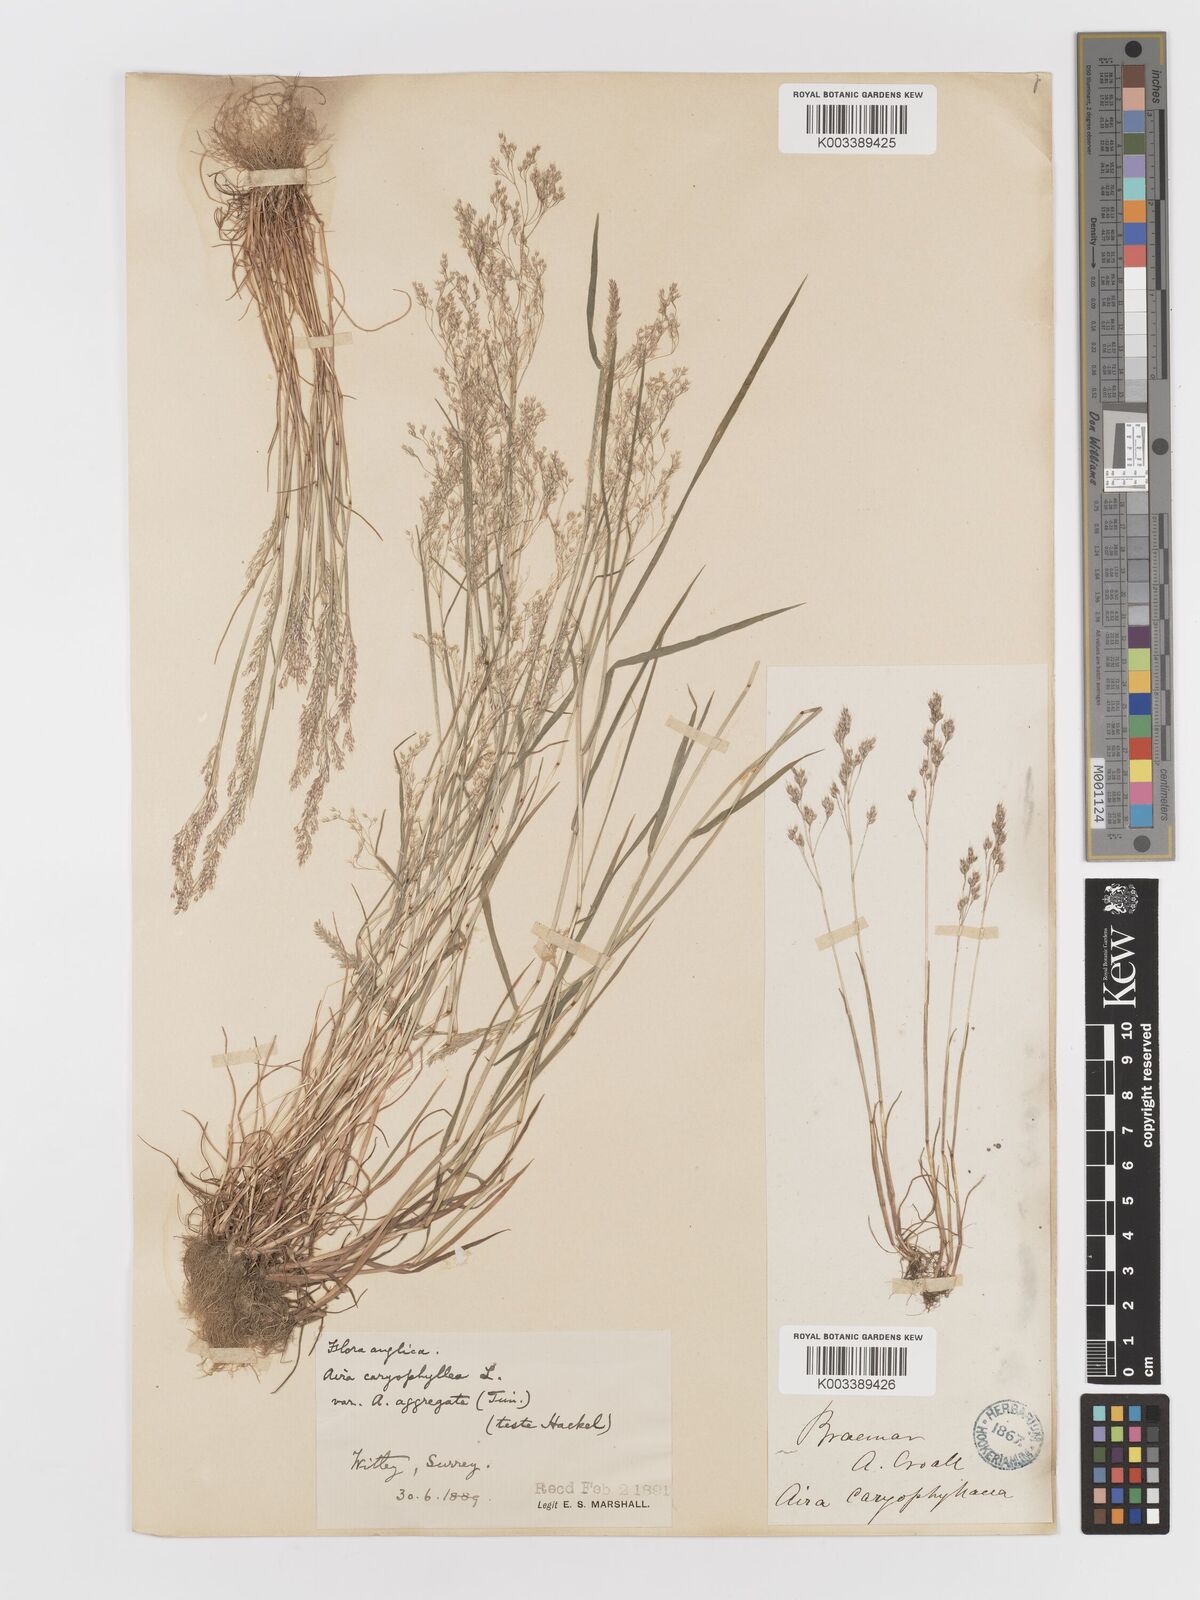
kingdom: Plantae
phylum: Tracheophyta
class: Liliopsida
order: Poales
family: Poaceae
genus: Aira
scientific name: Aira caryophyllea
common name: Silver hairgrass
